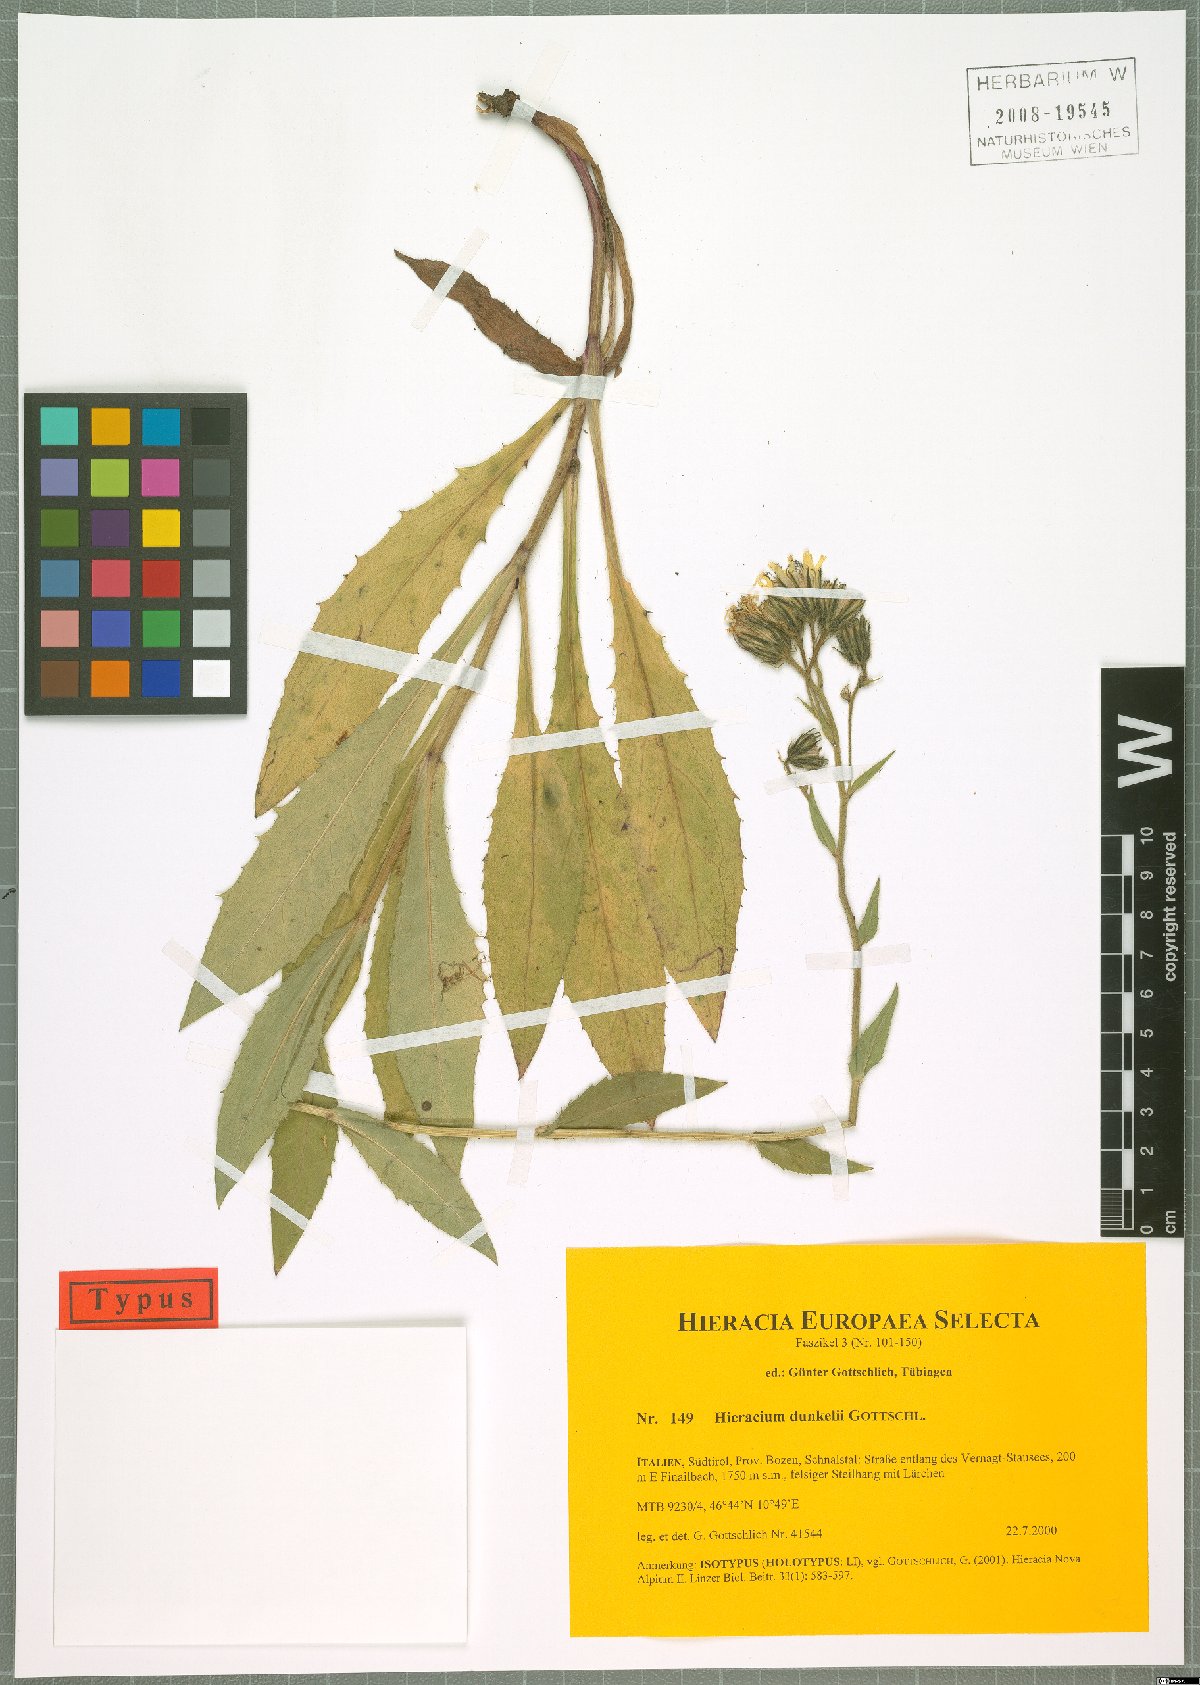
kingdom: Plantae
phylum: Tracheophyta
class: Magnoliopsida
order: Asterales
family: Asteraceae
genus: Hieracium
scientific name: Hieracium dunkelii
